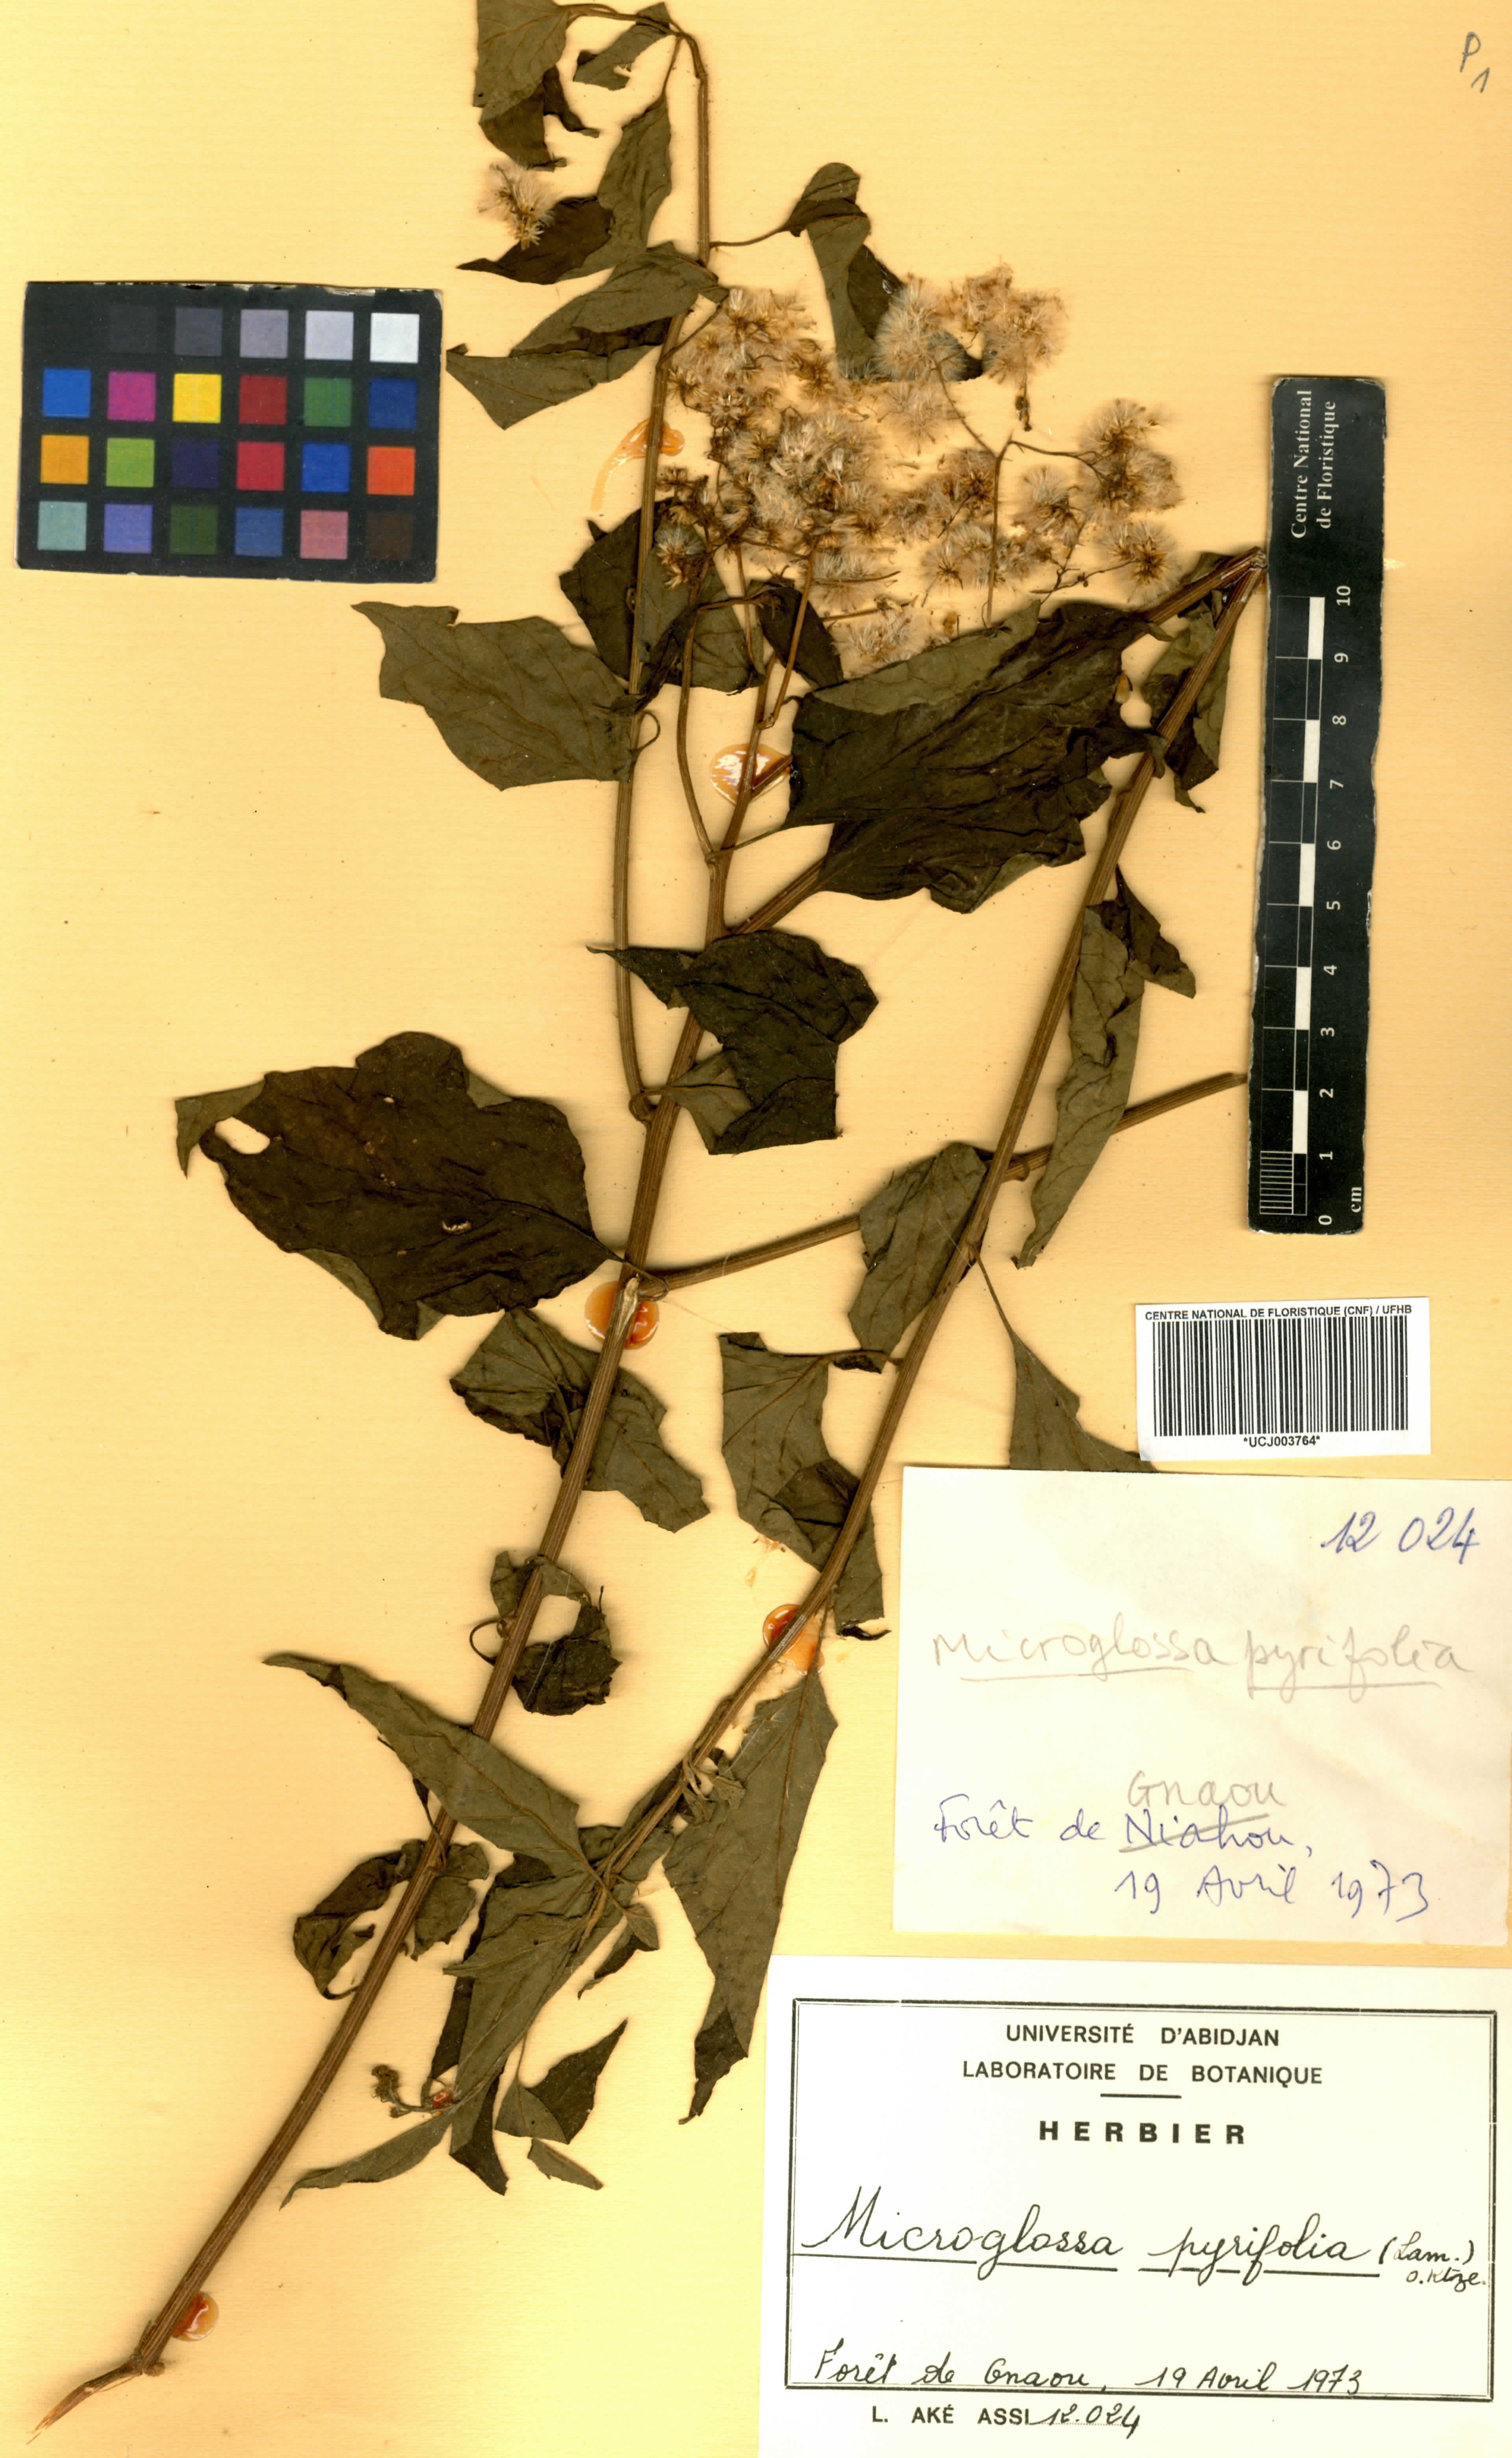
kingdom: Plantae
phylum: Tracheophyta
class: Magnoliopsida
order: Asterales
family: Asteraceae
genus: Microglossa
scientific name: Microglossa pyrifolia
